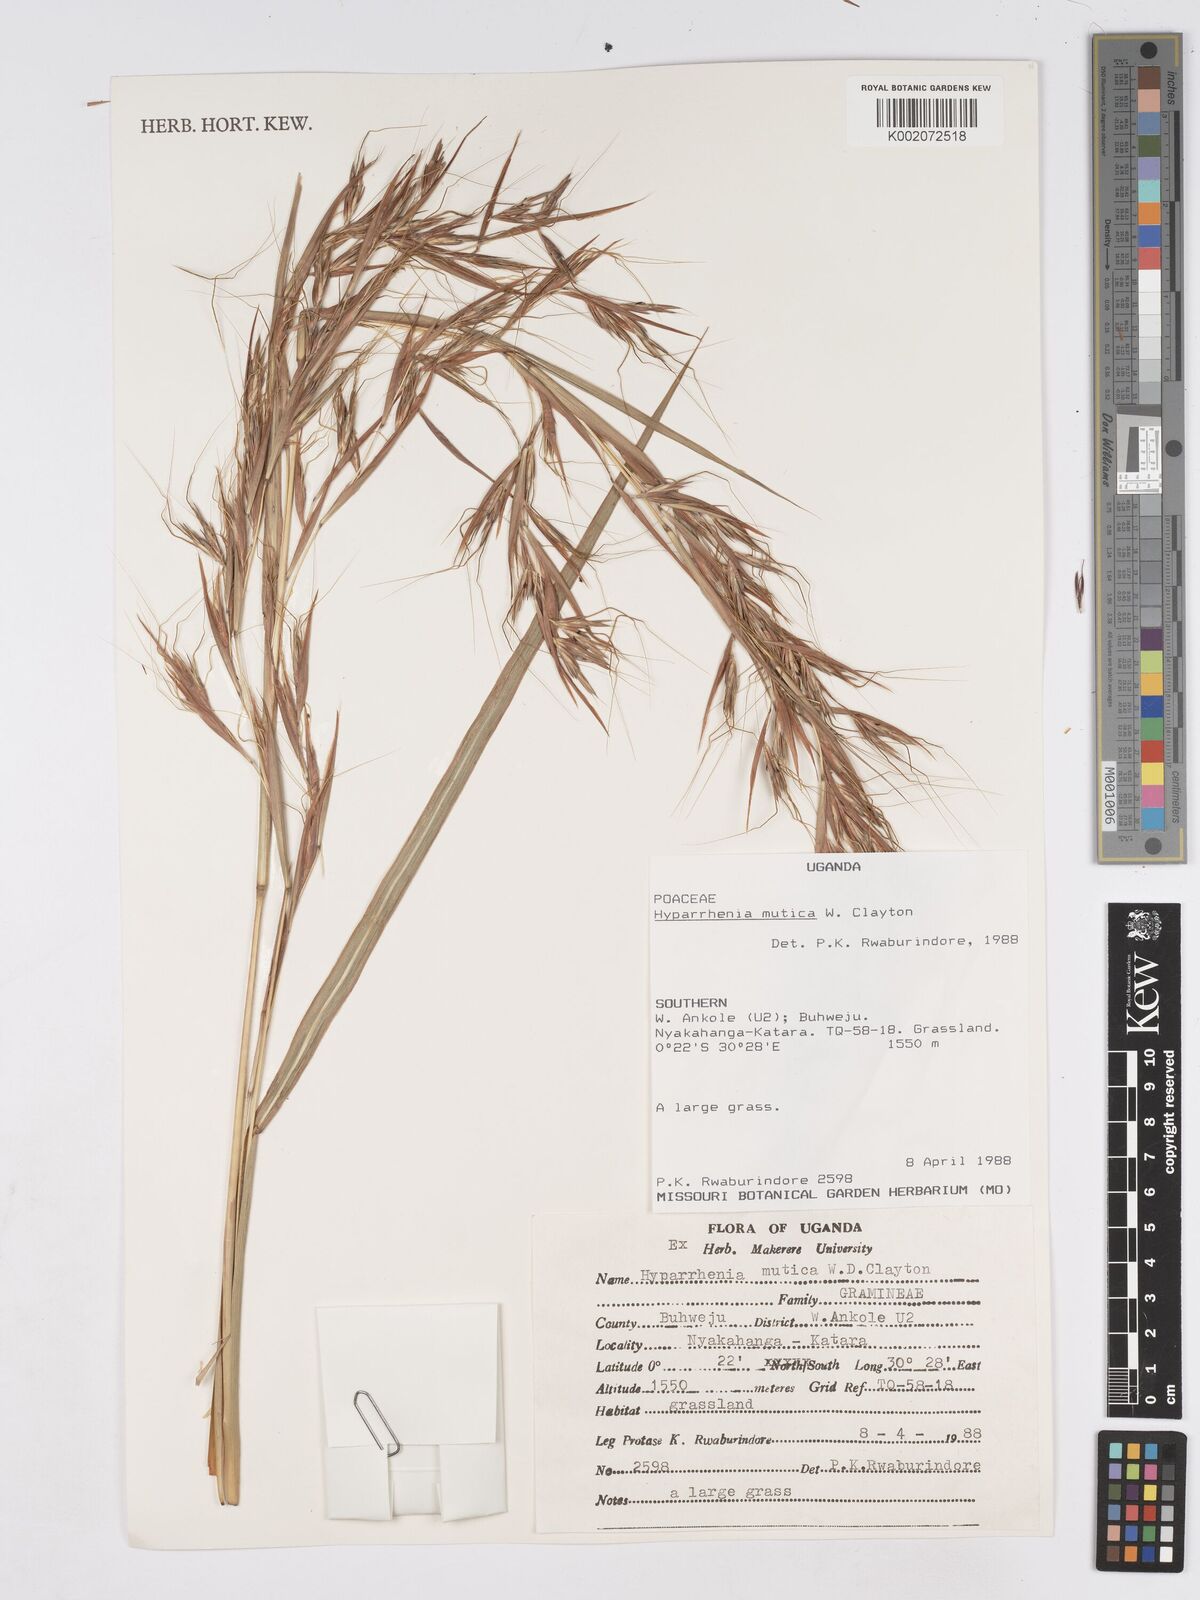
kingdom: Plantae
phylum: Tracheophyta
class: Liliopsida
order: Poales
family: Poaceae
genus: Hyparrhenia
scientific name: Hyparrhenia diplandra
